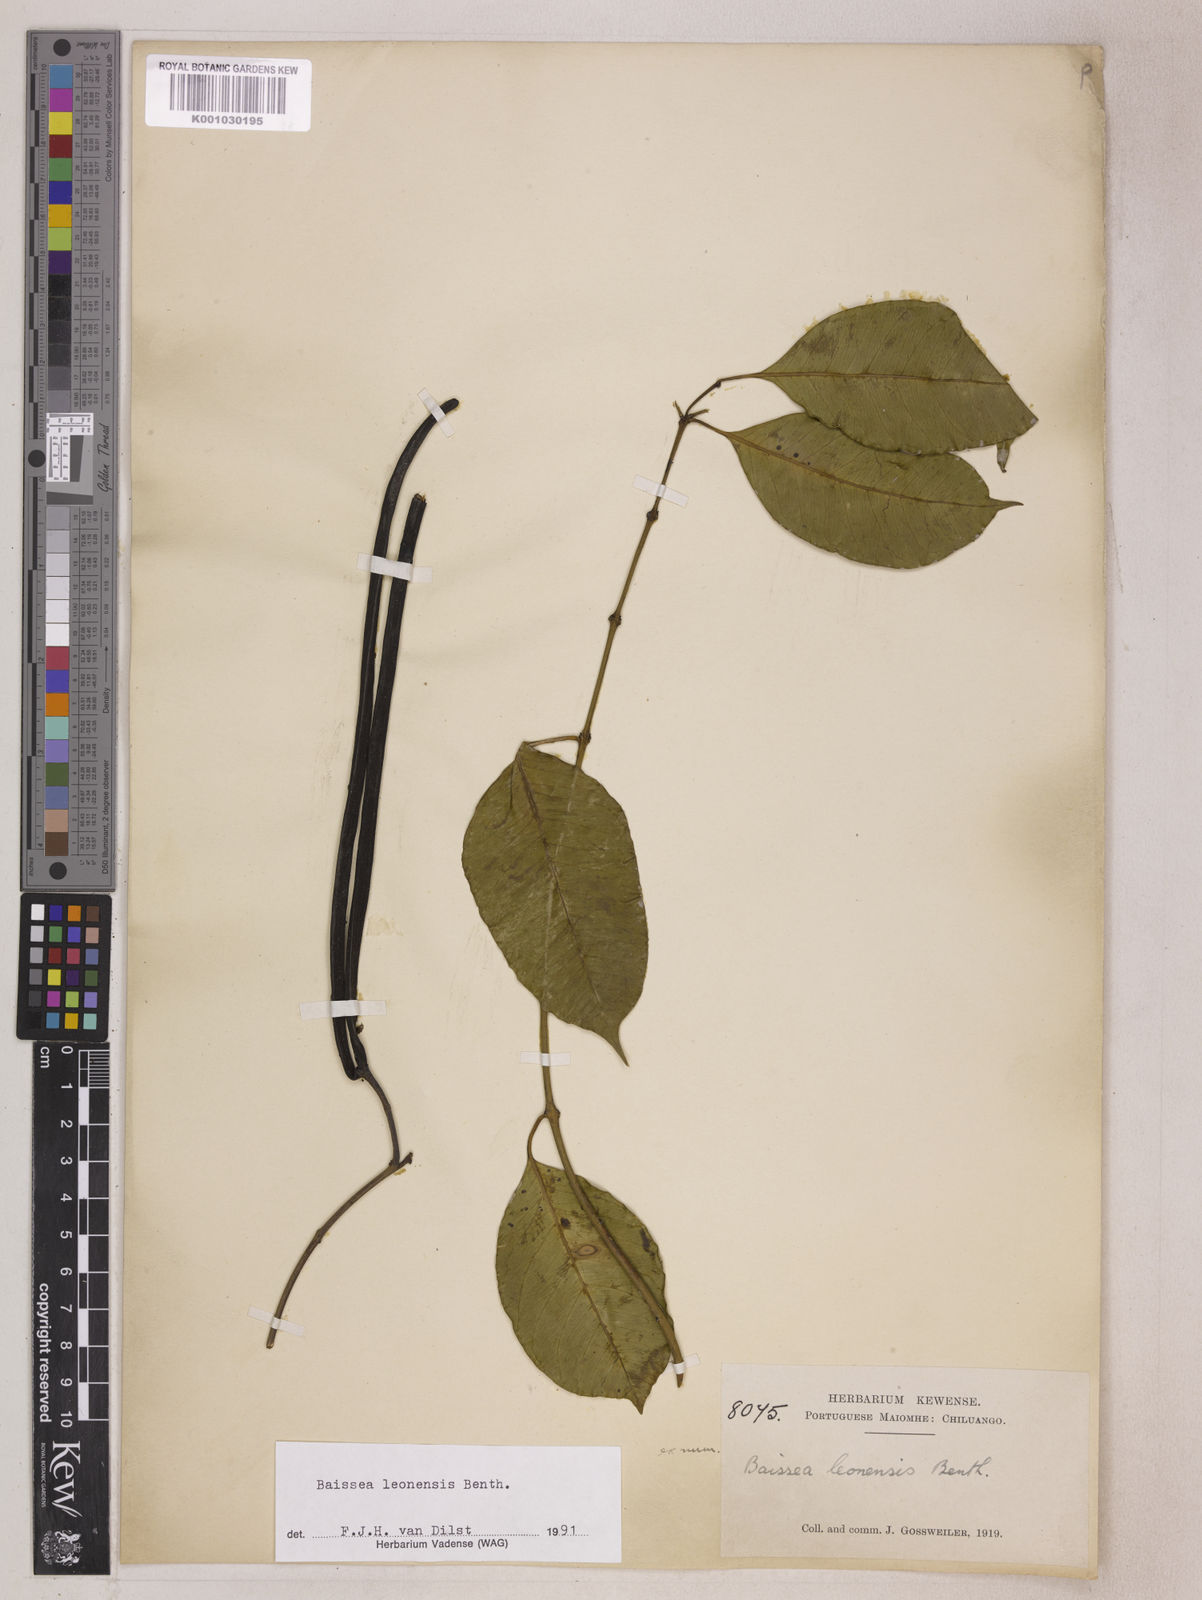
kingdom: Plantae
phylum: Tracheophyta
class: Magnoliopsida
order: Gentianales
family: Apocynaceae
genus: Baissea
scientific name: Baissea leonensis
